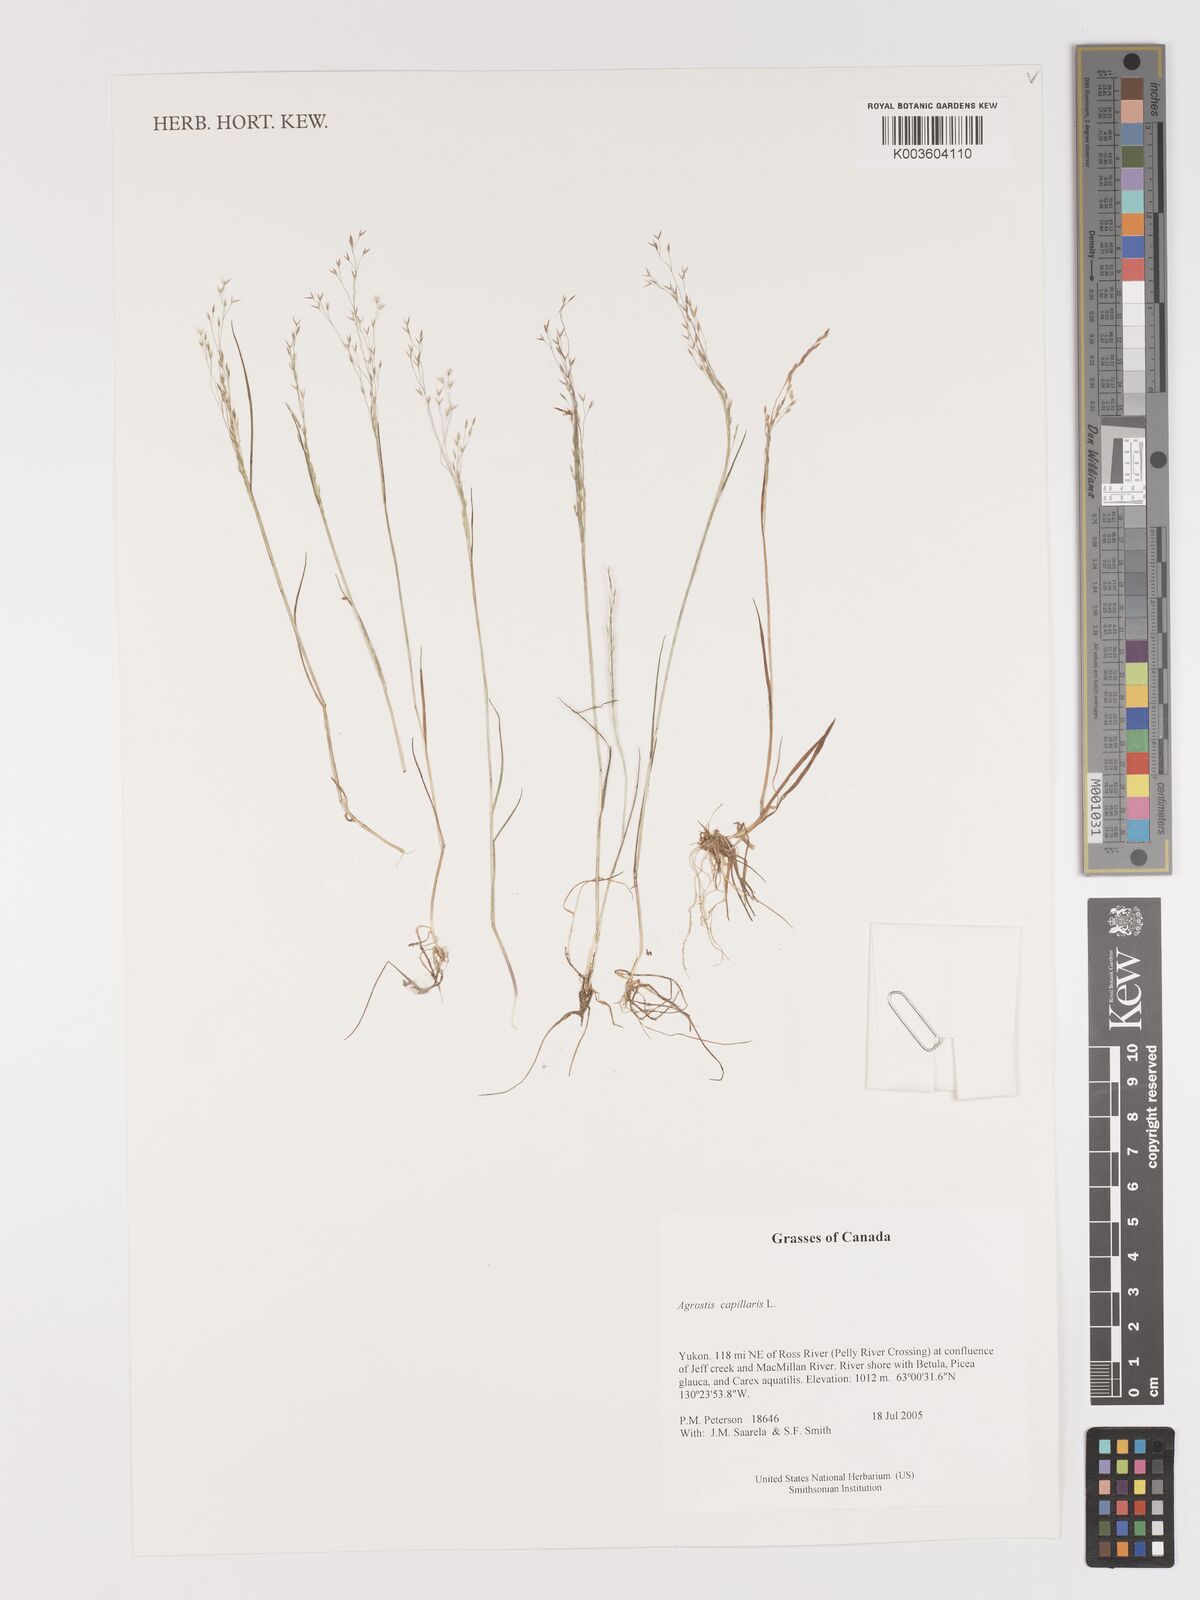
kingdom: Plantae
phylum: Tracheophyta
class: Liliopsida
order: Poales
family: Poaceae
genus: Agrostis
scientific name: Agrostis capillaris
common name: Colonial bentgrass
